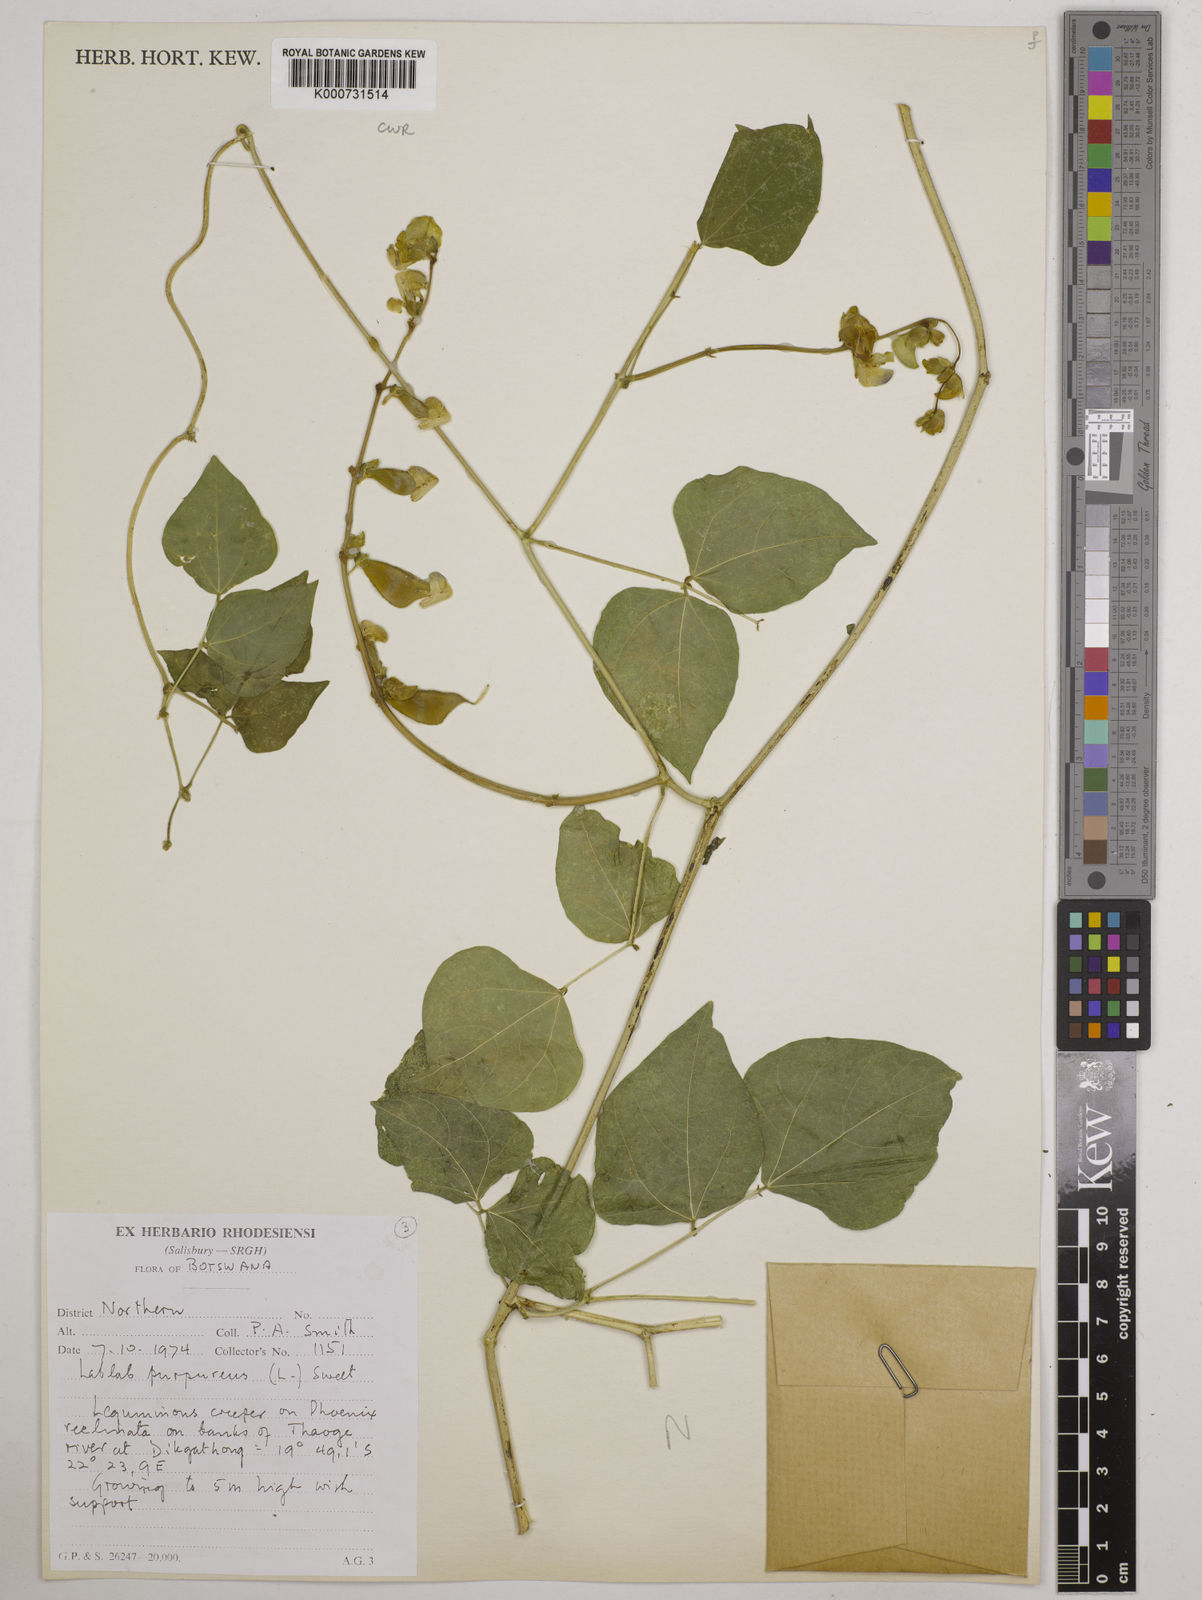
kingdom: Plantae
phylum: Tracheophyta
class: Magnoliopsida
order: Fabales
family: Fabaceae
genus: Lablab
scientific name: Lablab purpureus
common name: Lablab-bean
